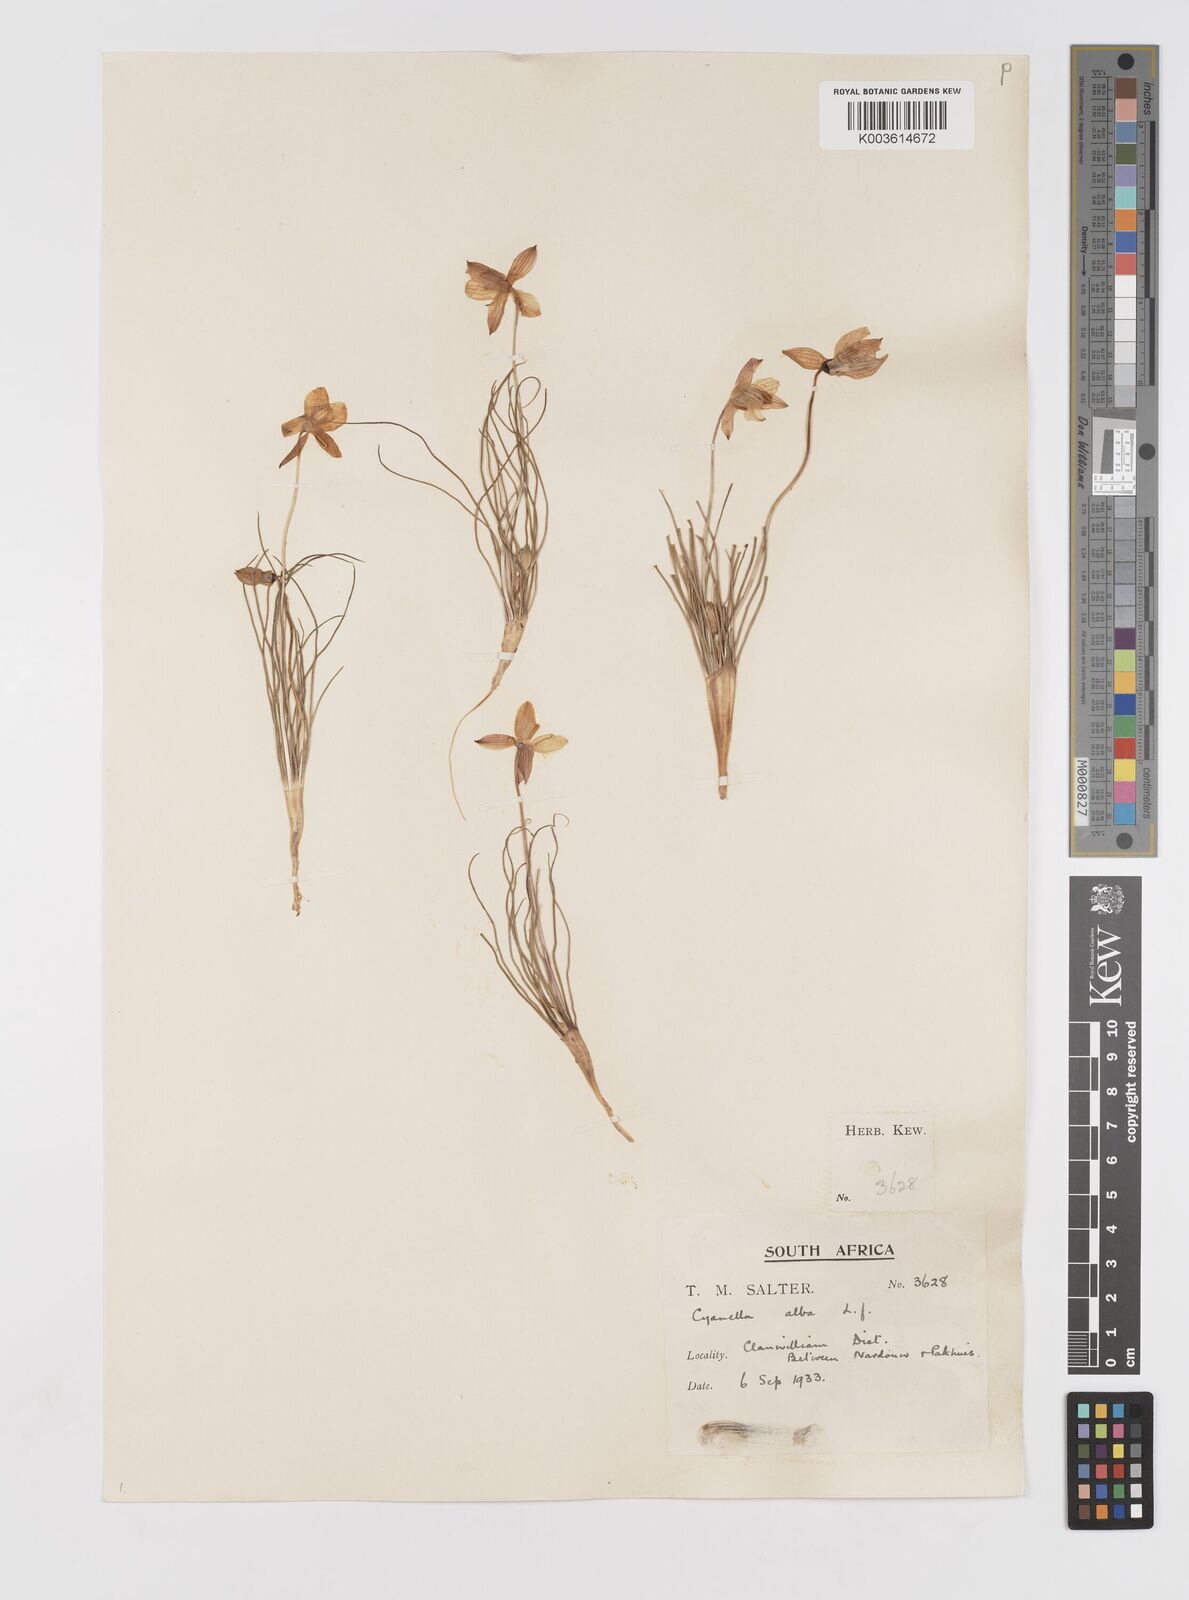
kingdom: Plantae
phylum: Tracheophyta
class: Liliopsida
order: Asparagales
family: Tecophilaeaceae
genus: Cyanella
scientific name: Cyanella alba
